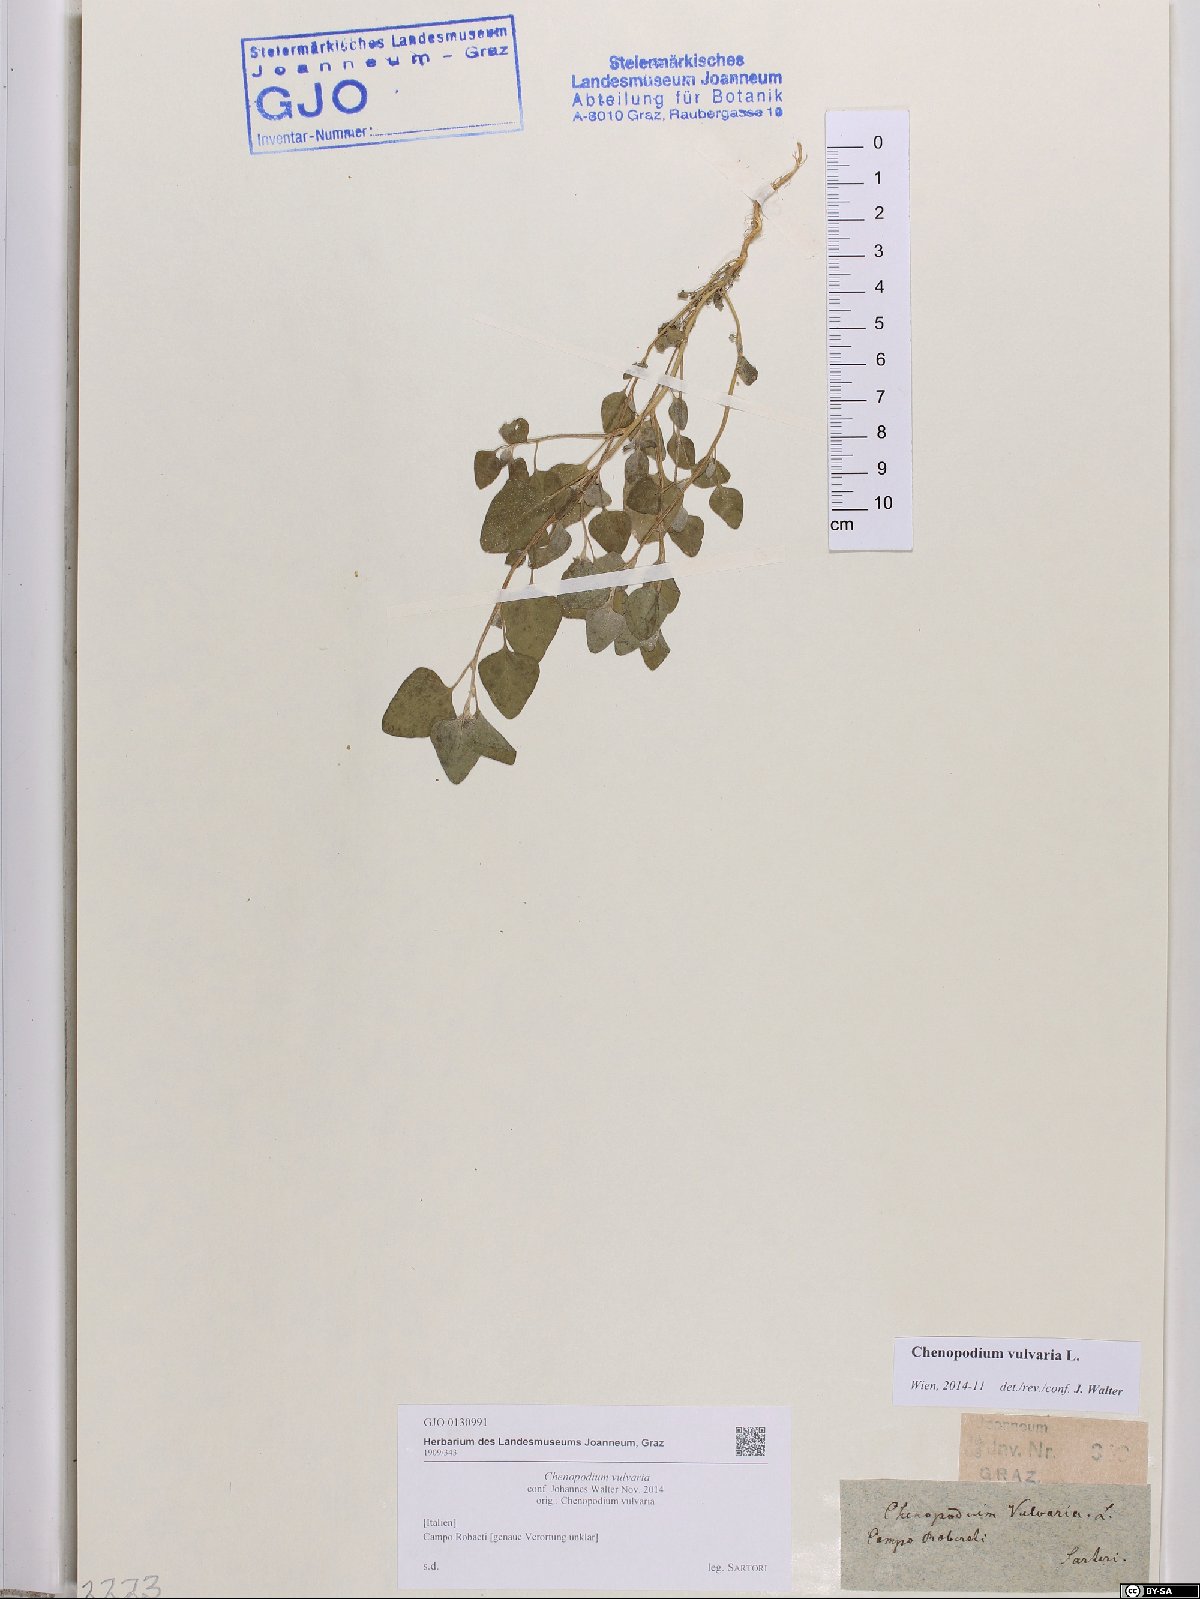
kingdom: Plantae
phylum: Tracheophyta
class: Magnoliopsida
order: Caryophyllales
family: Amaranthaceae
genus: Chenopodium
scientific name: Chenopodium vulvaria
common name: Stinking goosefoot
